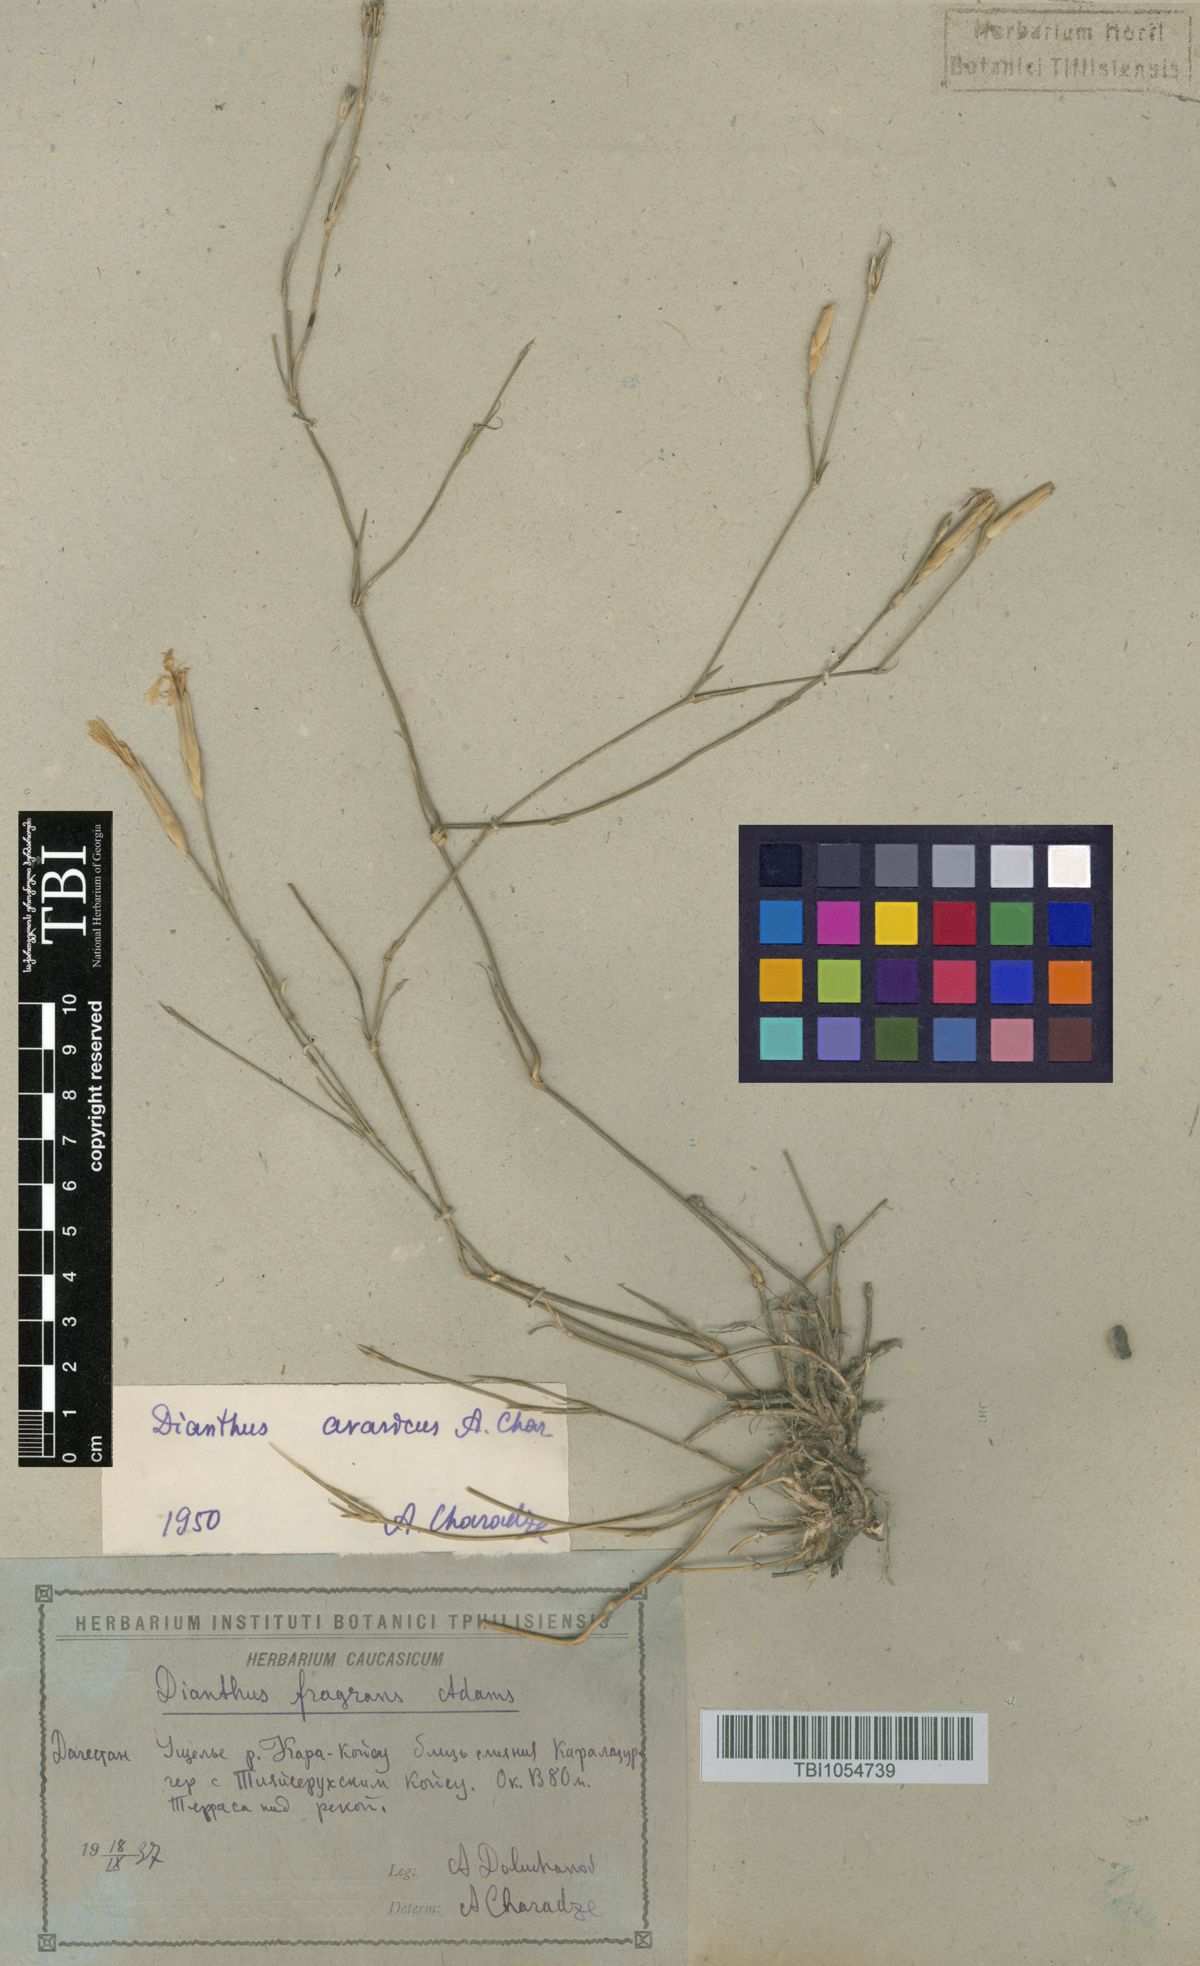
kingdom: Plantae
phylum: Tracheophyta
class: Magnoliopsida
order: Caryophyllales
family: Caryophyllaceae
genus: Dianthus
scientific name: Dianthus
